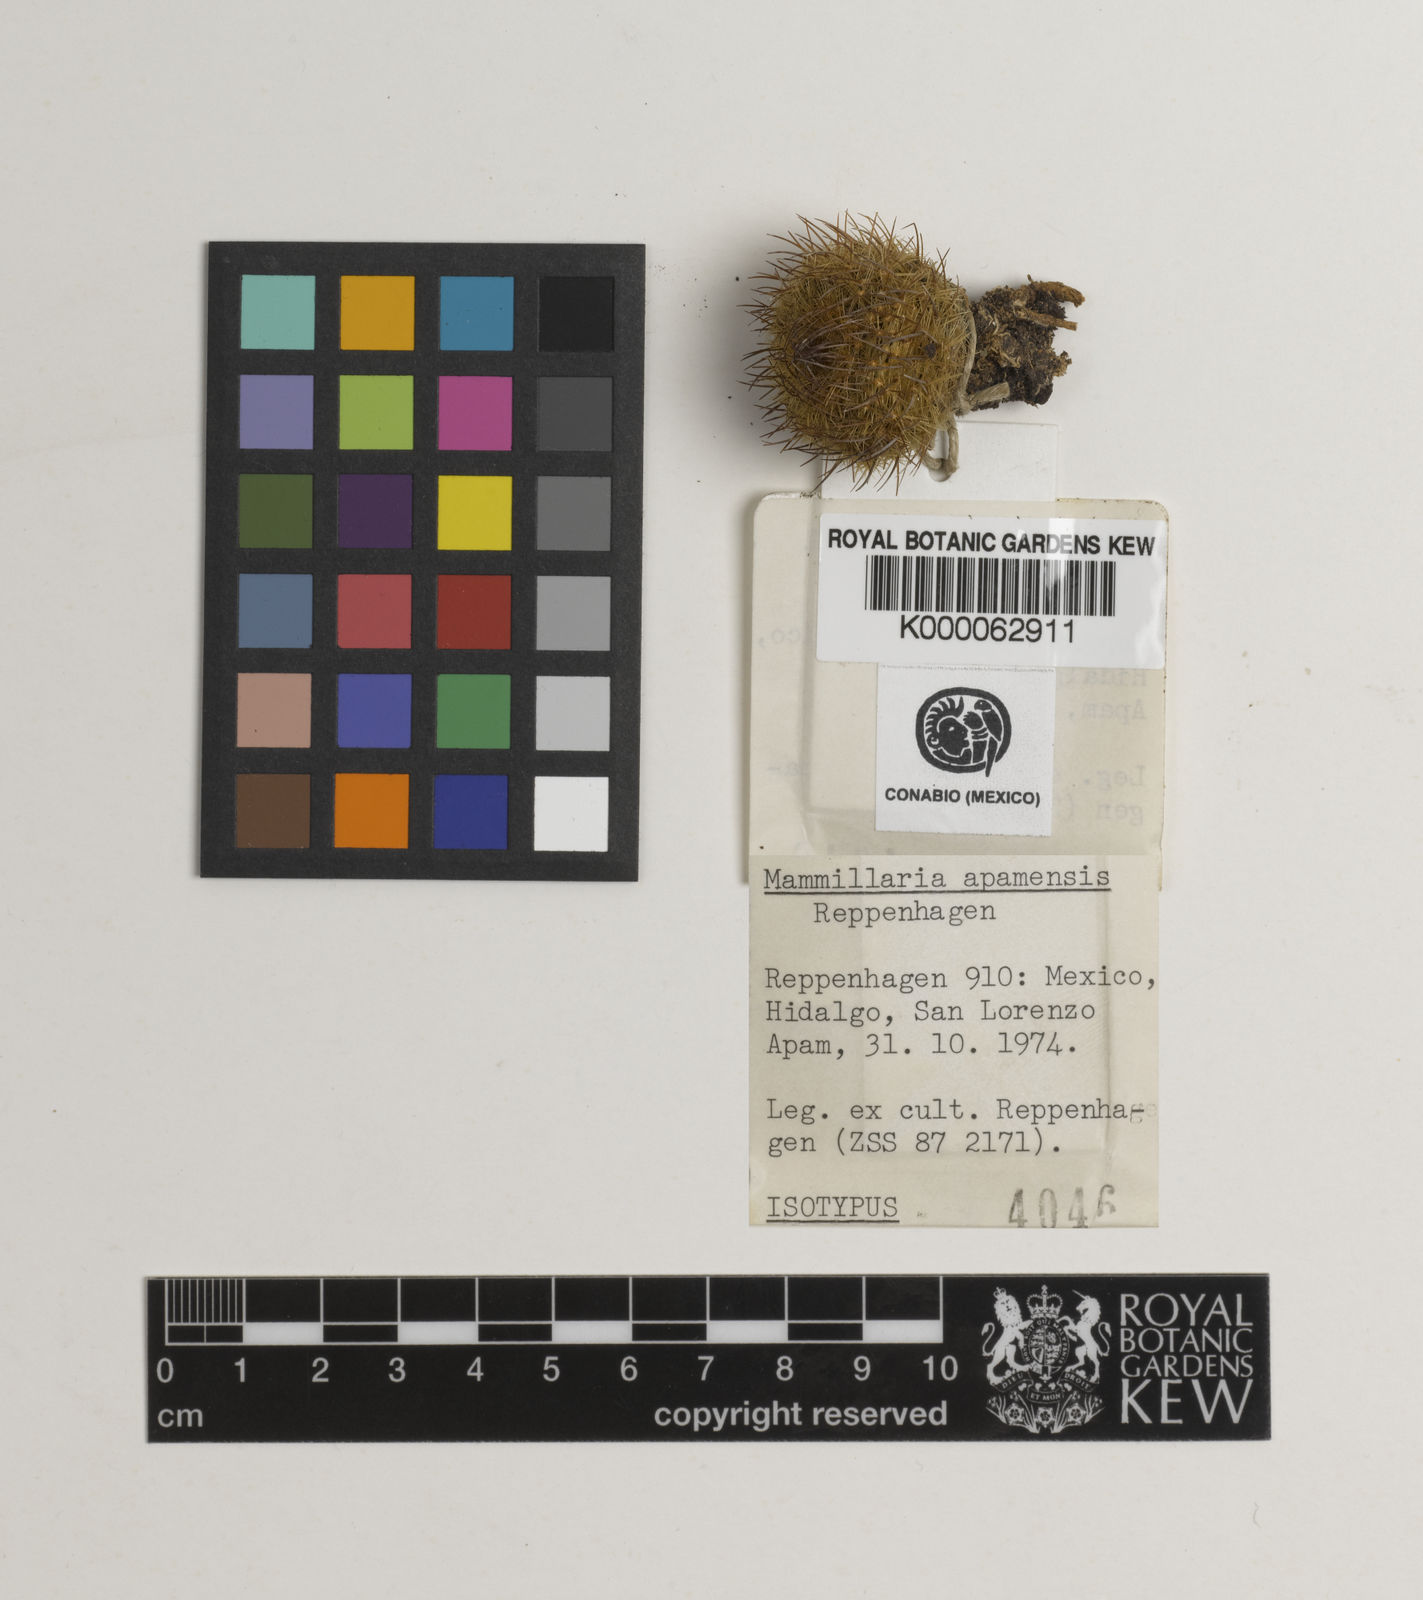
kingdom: Plantae
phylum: Tracheophyta
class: Magnoliopsida
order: Caryophyllales
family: Cactaceae
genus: Mammillaria
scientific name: Mammillaria wiesingeri
